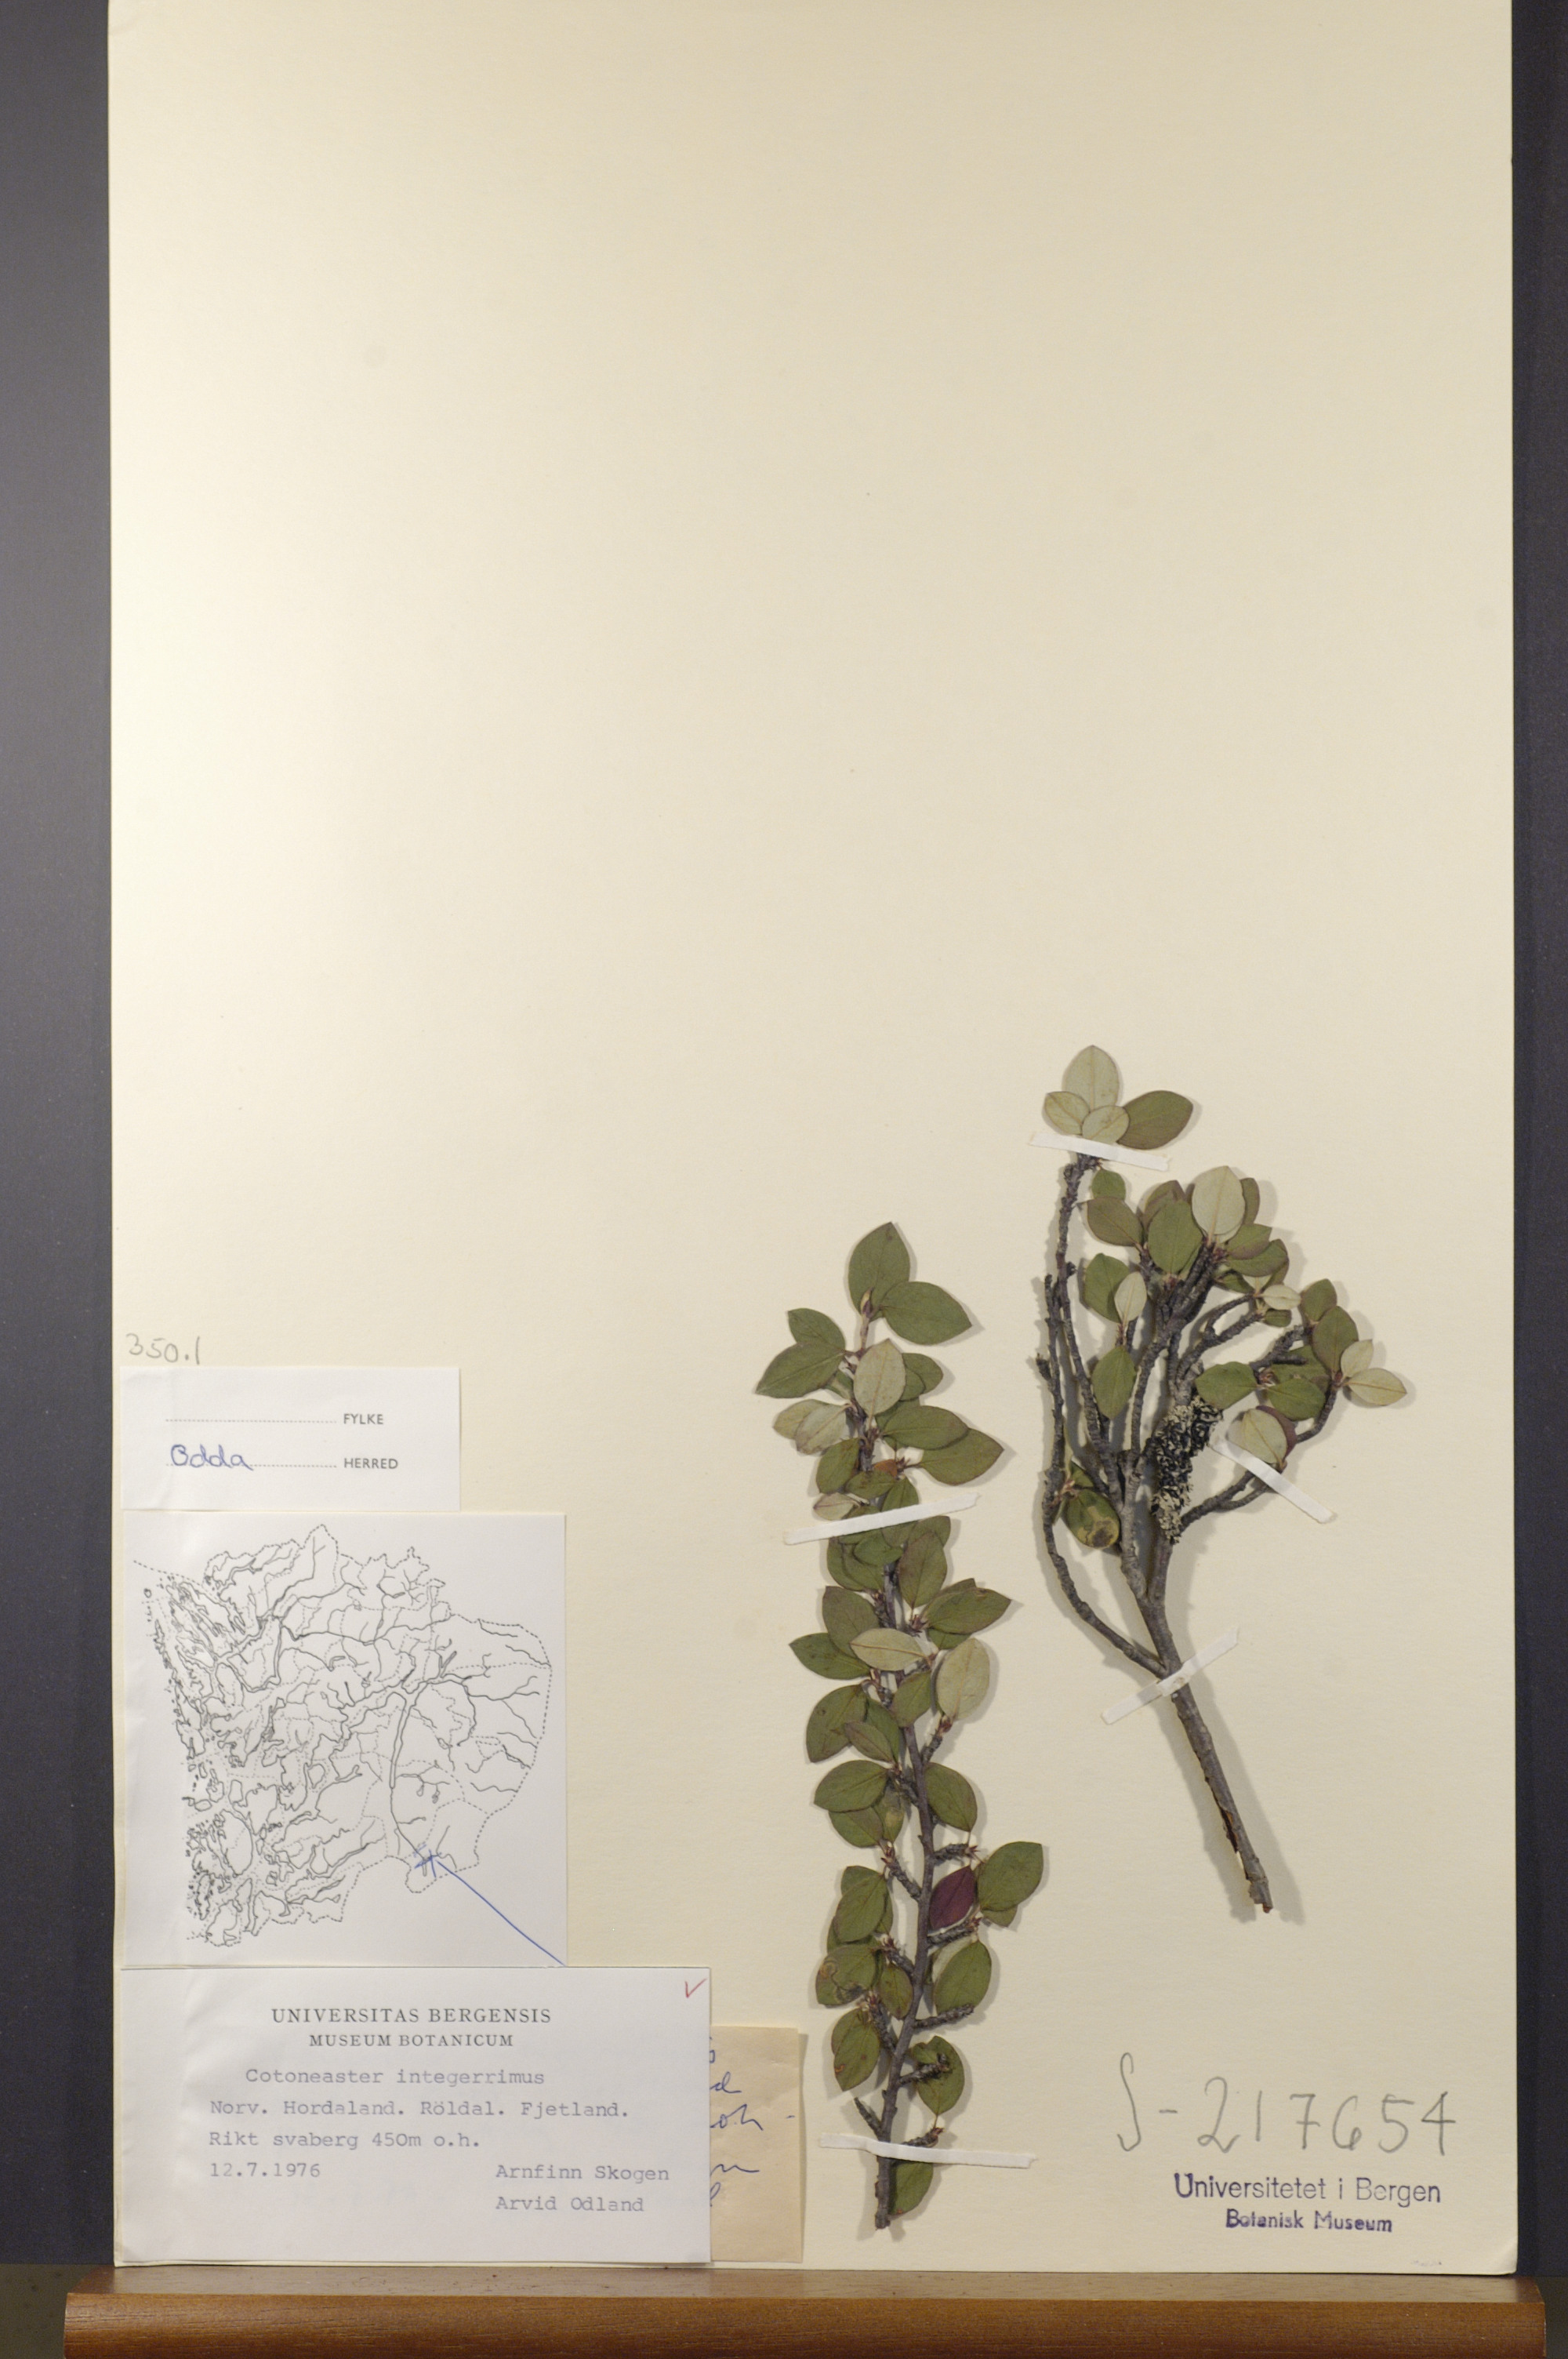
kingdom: Plantae
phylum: Tracheophyta
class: Magnoliopsida
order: Rosales
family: Rosaceae
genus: Cotoneaster
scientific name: Cotoneaster integerrimus
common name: Wild cotoneaster
